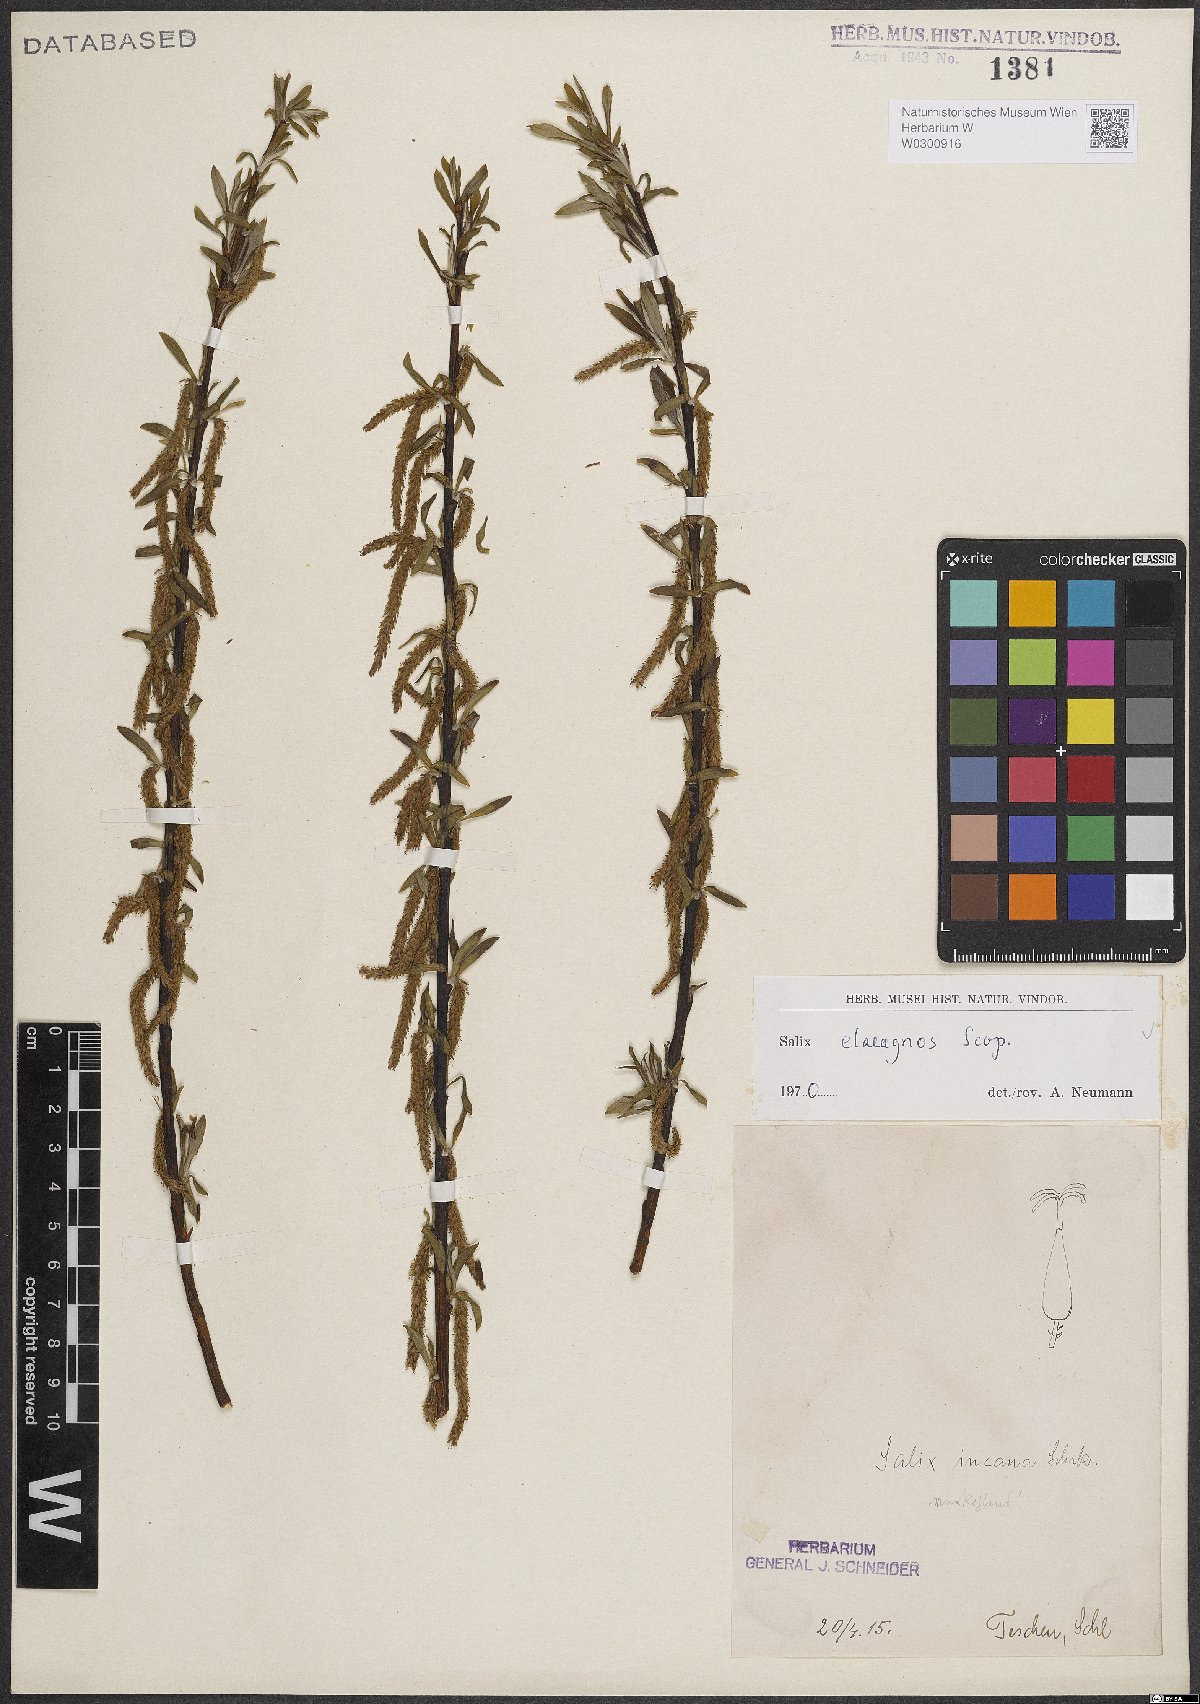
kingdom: Plantae
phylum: Tracheophyta
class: Magnoliopsida
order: Malpighiales
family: Salicaceae
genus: Salix
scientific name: Salix eleagnos
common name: Elaeagnus willow
